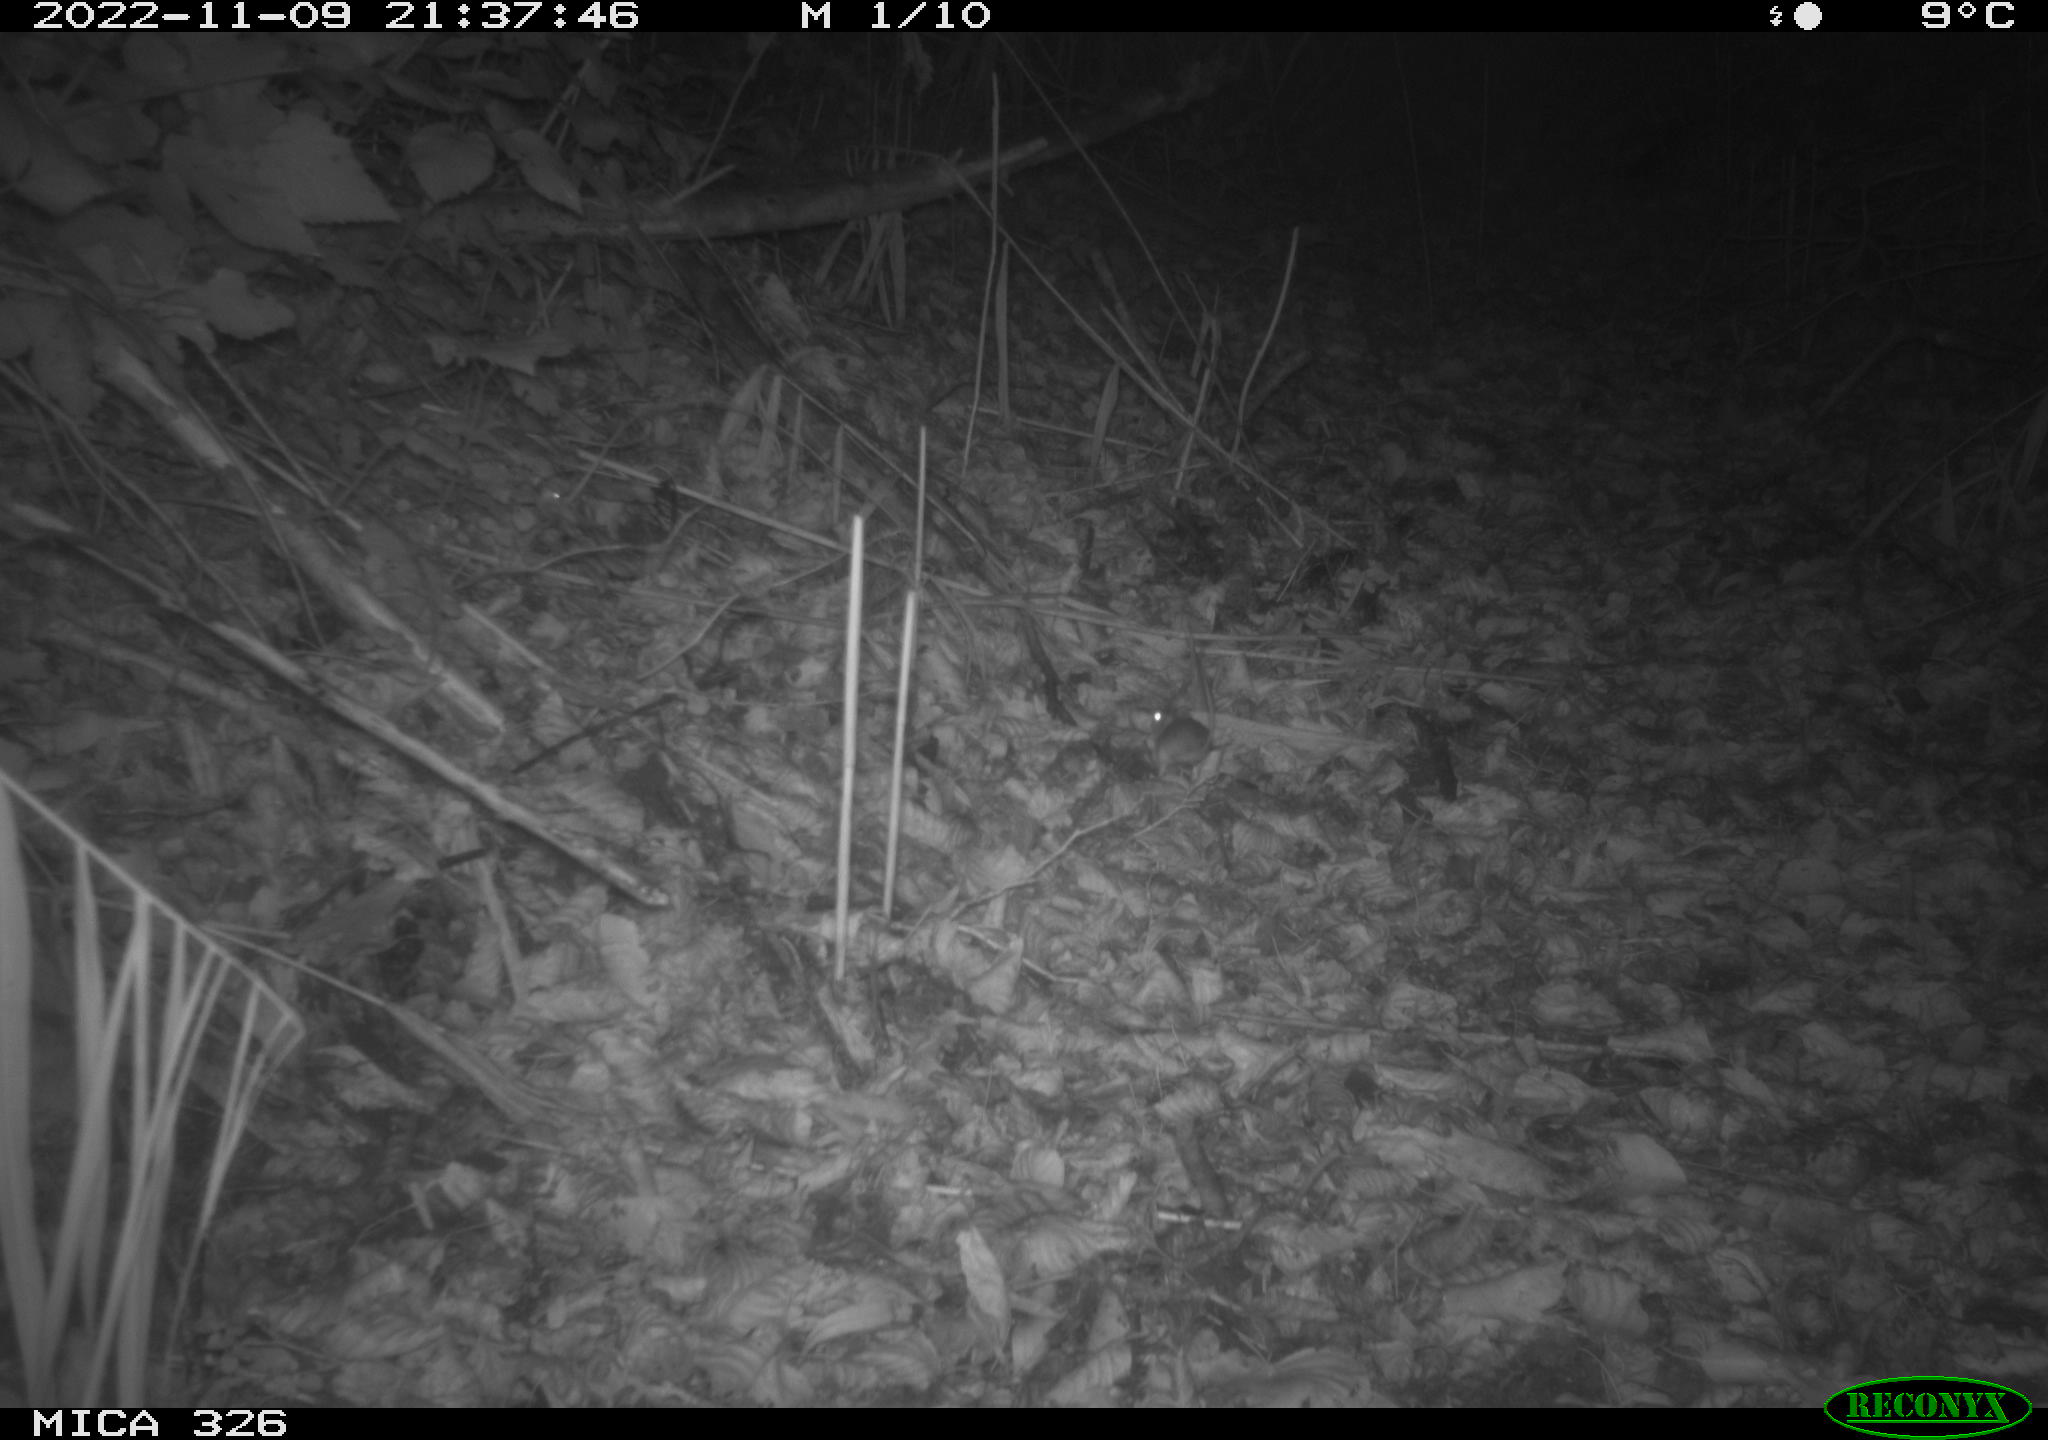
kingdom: Animalia
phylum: Chordata
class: Mammalia
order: Rodentia
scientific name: Rodentia
